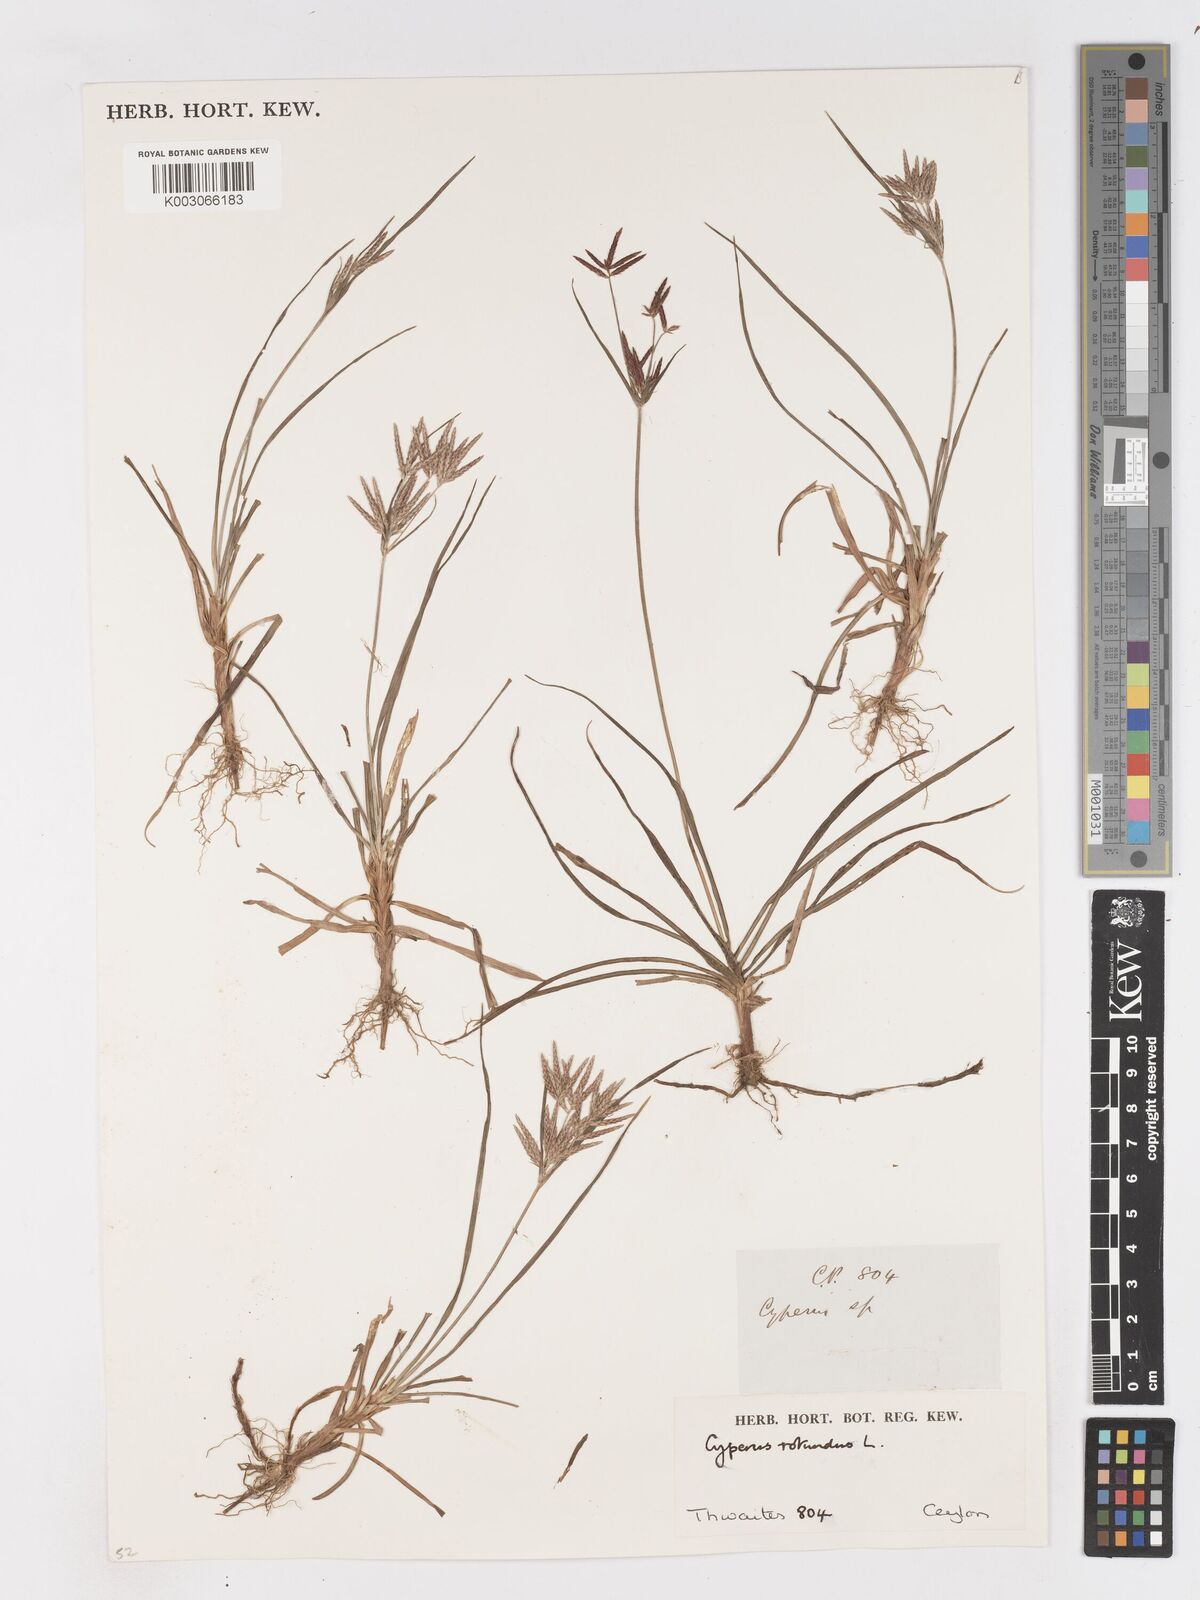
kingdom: Plantae
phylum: Tracheophyta
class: Liliopsida
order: Poales
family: Cyperaceae
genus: Cyperus
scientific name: Cyperus rotundus
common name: Nutgrass
